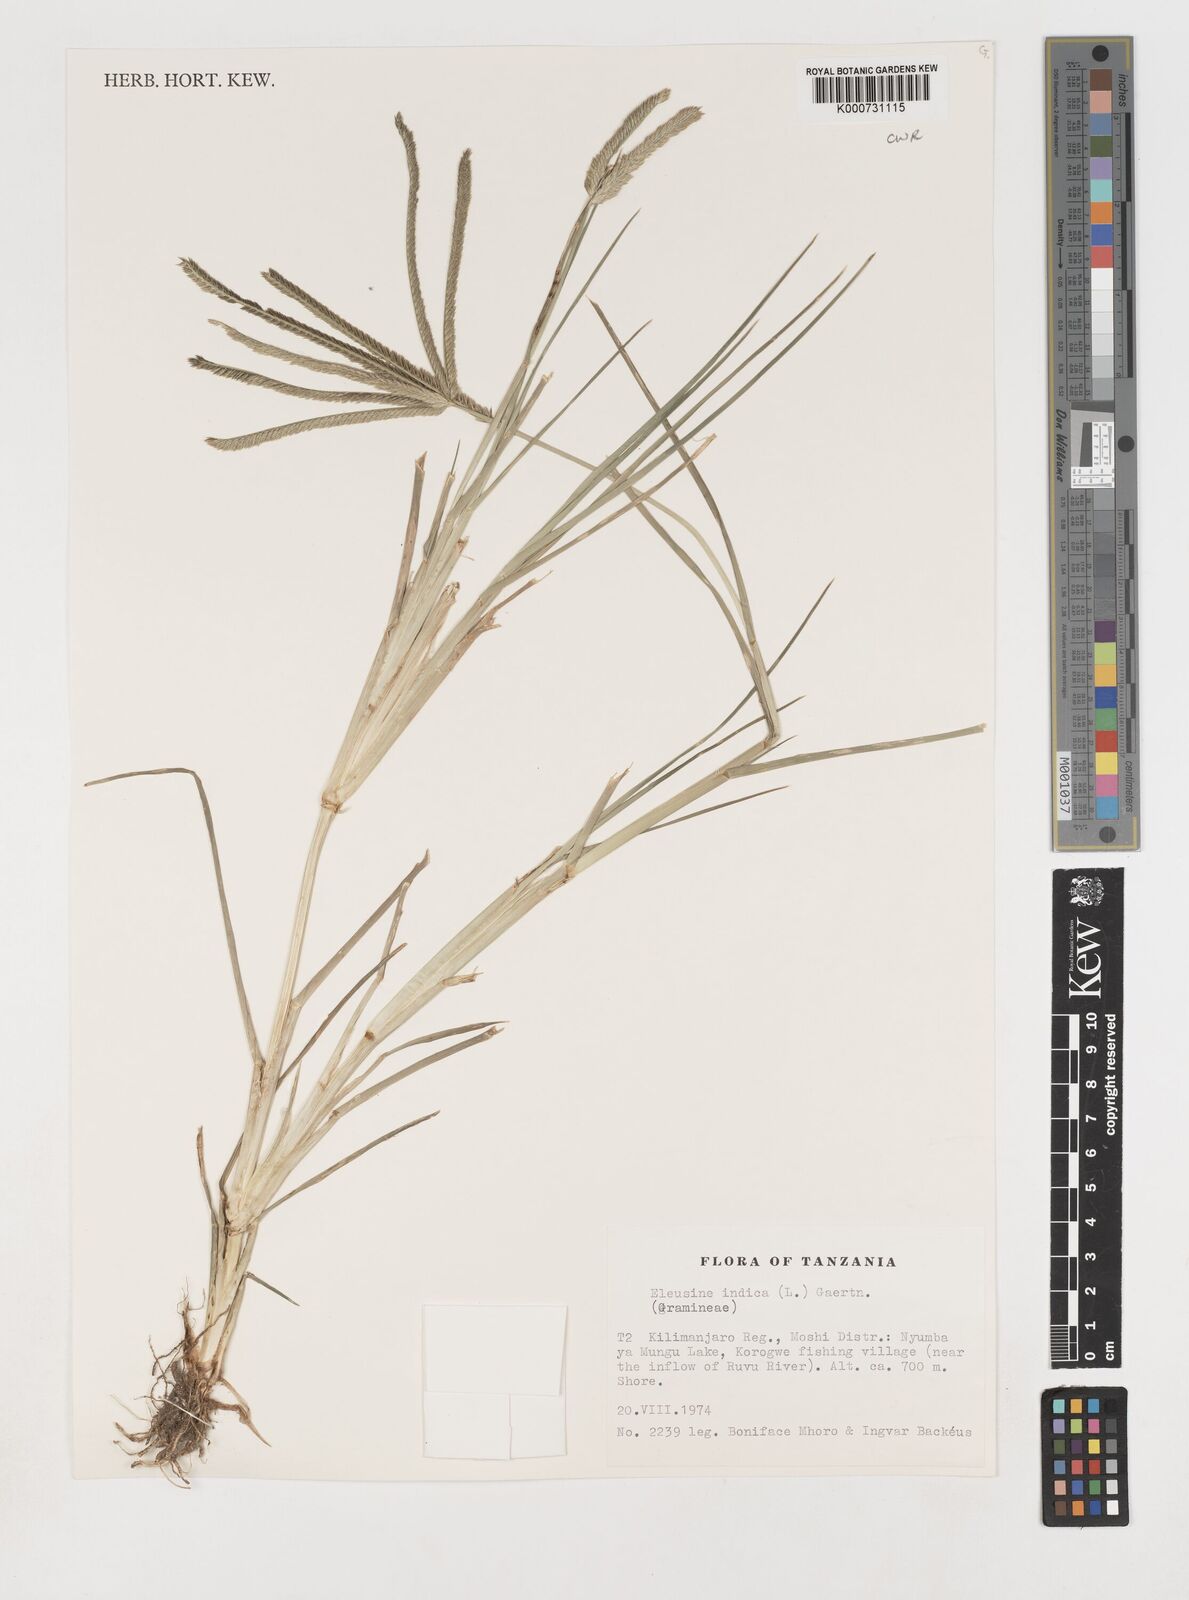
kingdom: Plantae
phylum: Tracheophyta
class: Liliopsida
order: Poales
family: Poaceae
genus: Eleusine
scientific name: Eleusine indica
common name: Yard-grass
